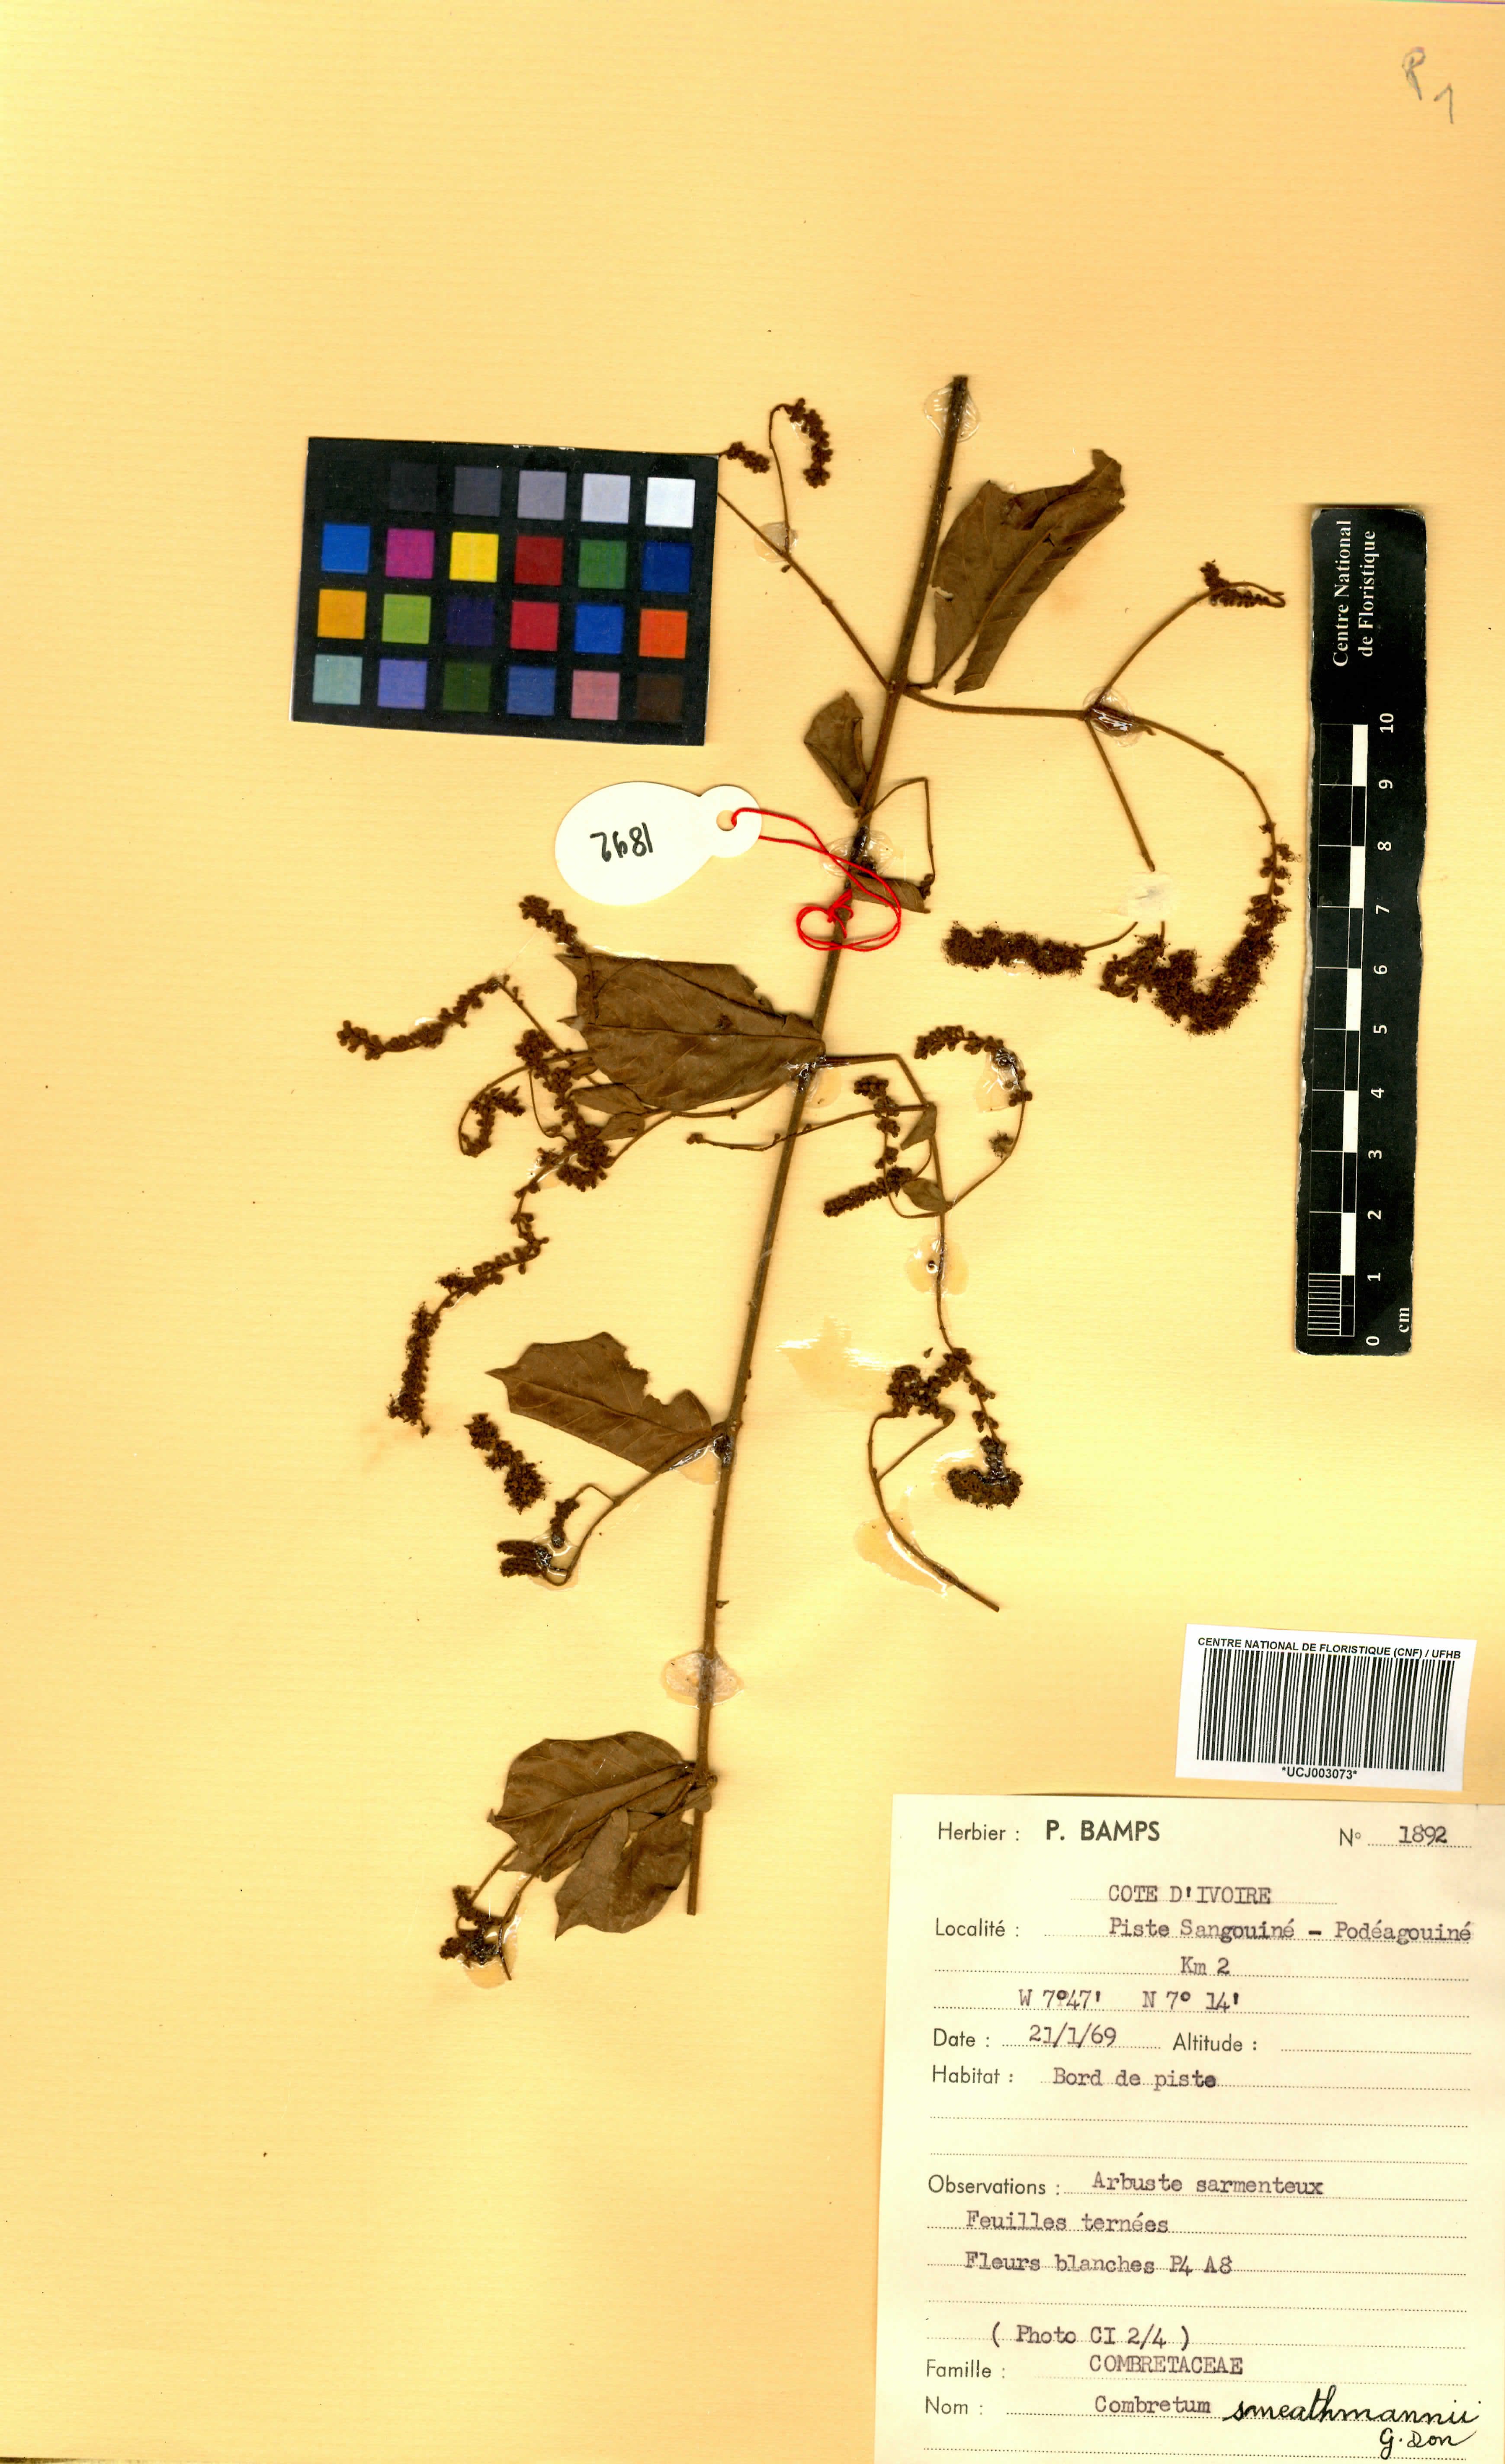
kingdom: Plantae
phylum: Tracheophyta
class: Magnoliopsida
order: Myrtales
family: Combretaceae
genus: Combretum
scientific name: Combretum mucronatum
